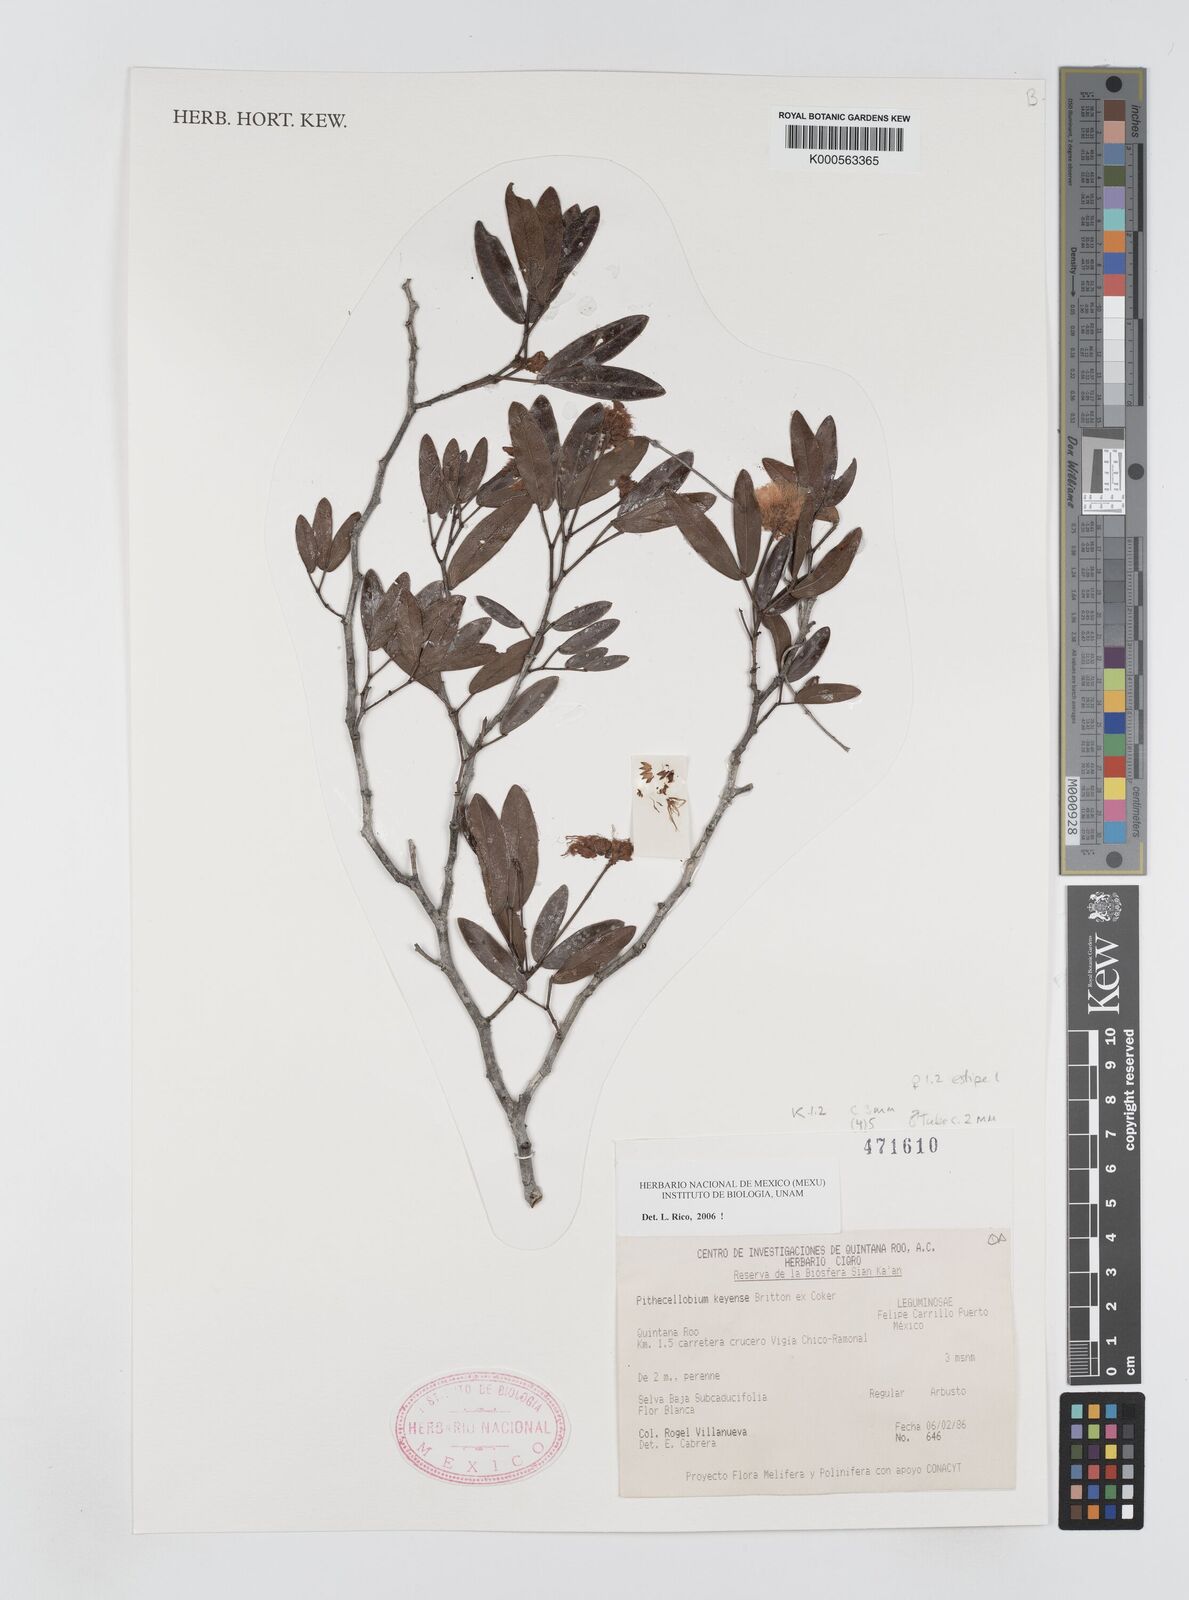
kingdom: Plantae
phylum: Tracheophyta
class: Magnoliopsida
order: Fabales
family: Fabaceae
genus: Pithecellobium
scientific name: Pithecellobium
